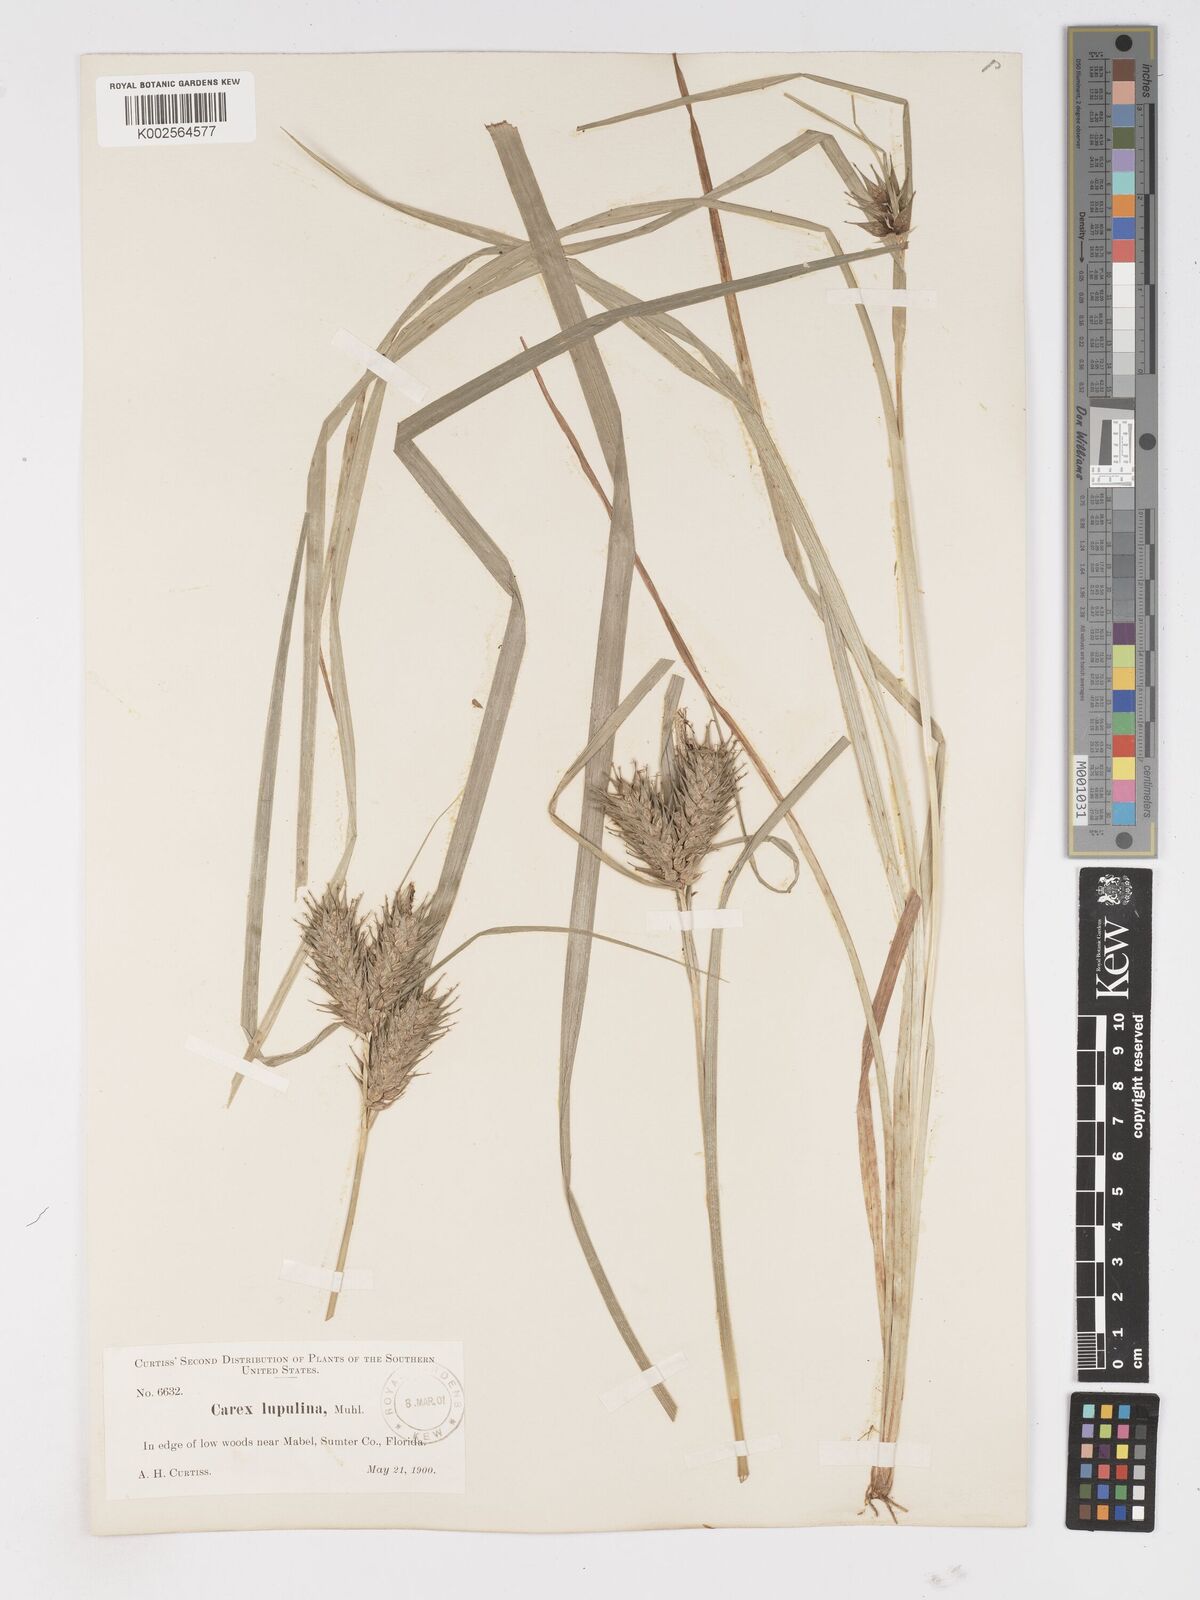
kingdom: Plantae
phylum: Tracheophyta
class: Liliopsida
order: Poales
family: Cyperaceae
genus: Carex
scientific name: Carex lupulina
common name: Hop sedge
